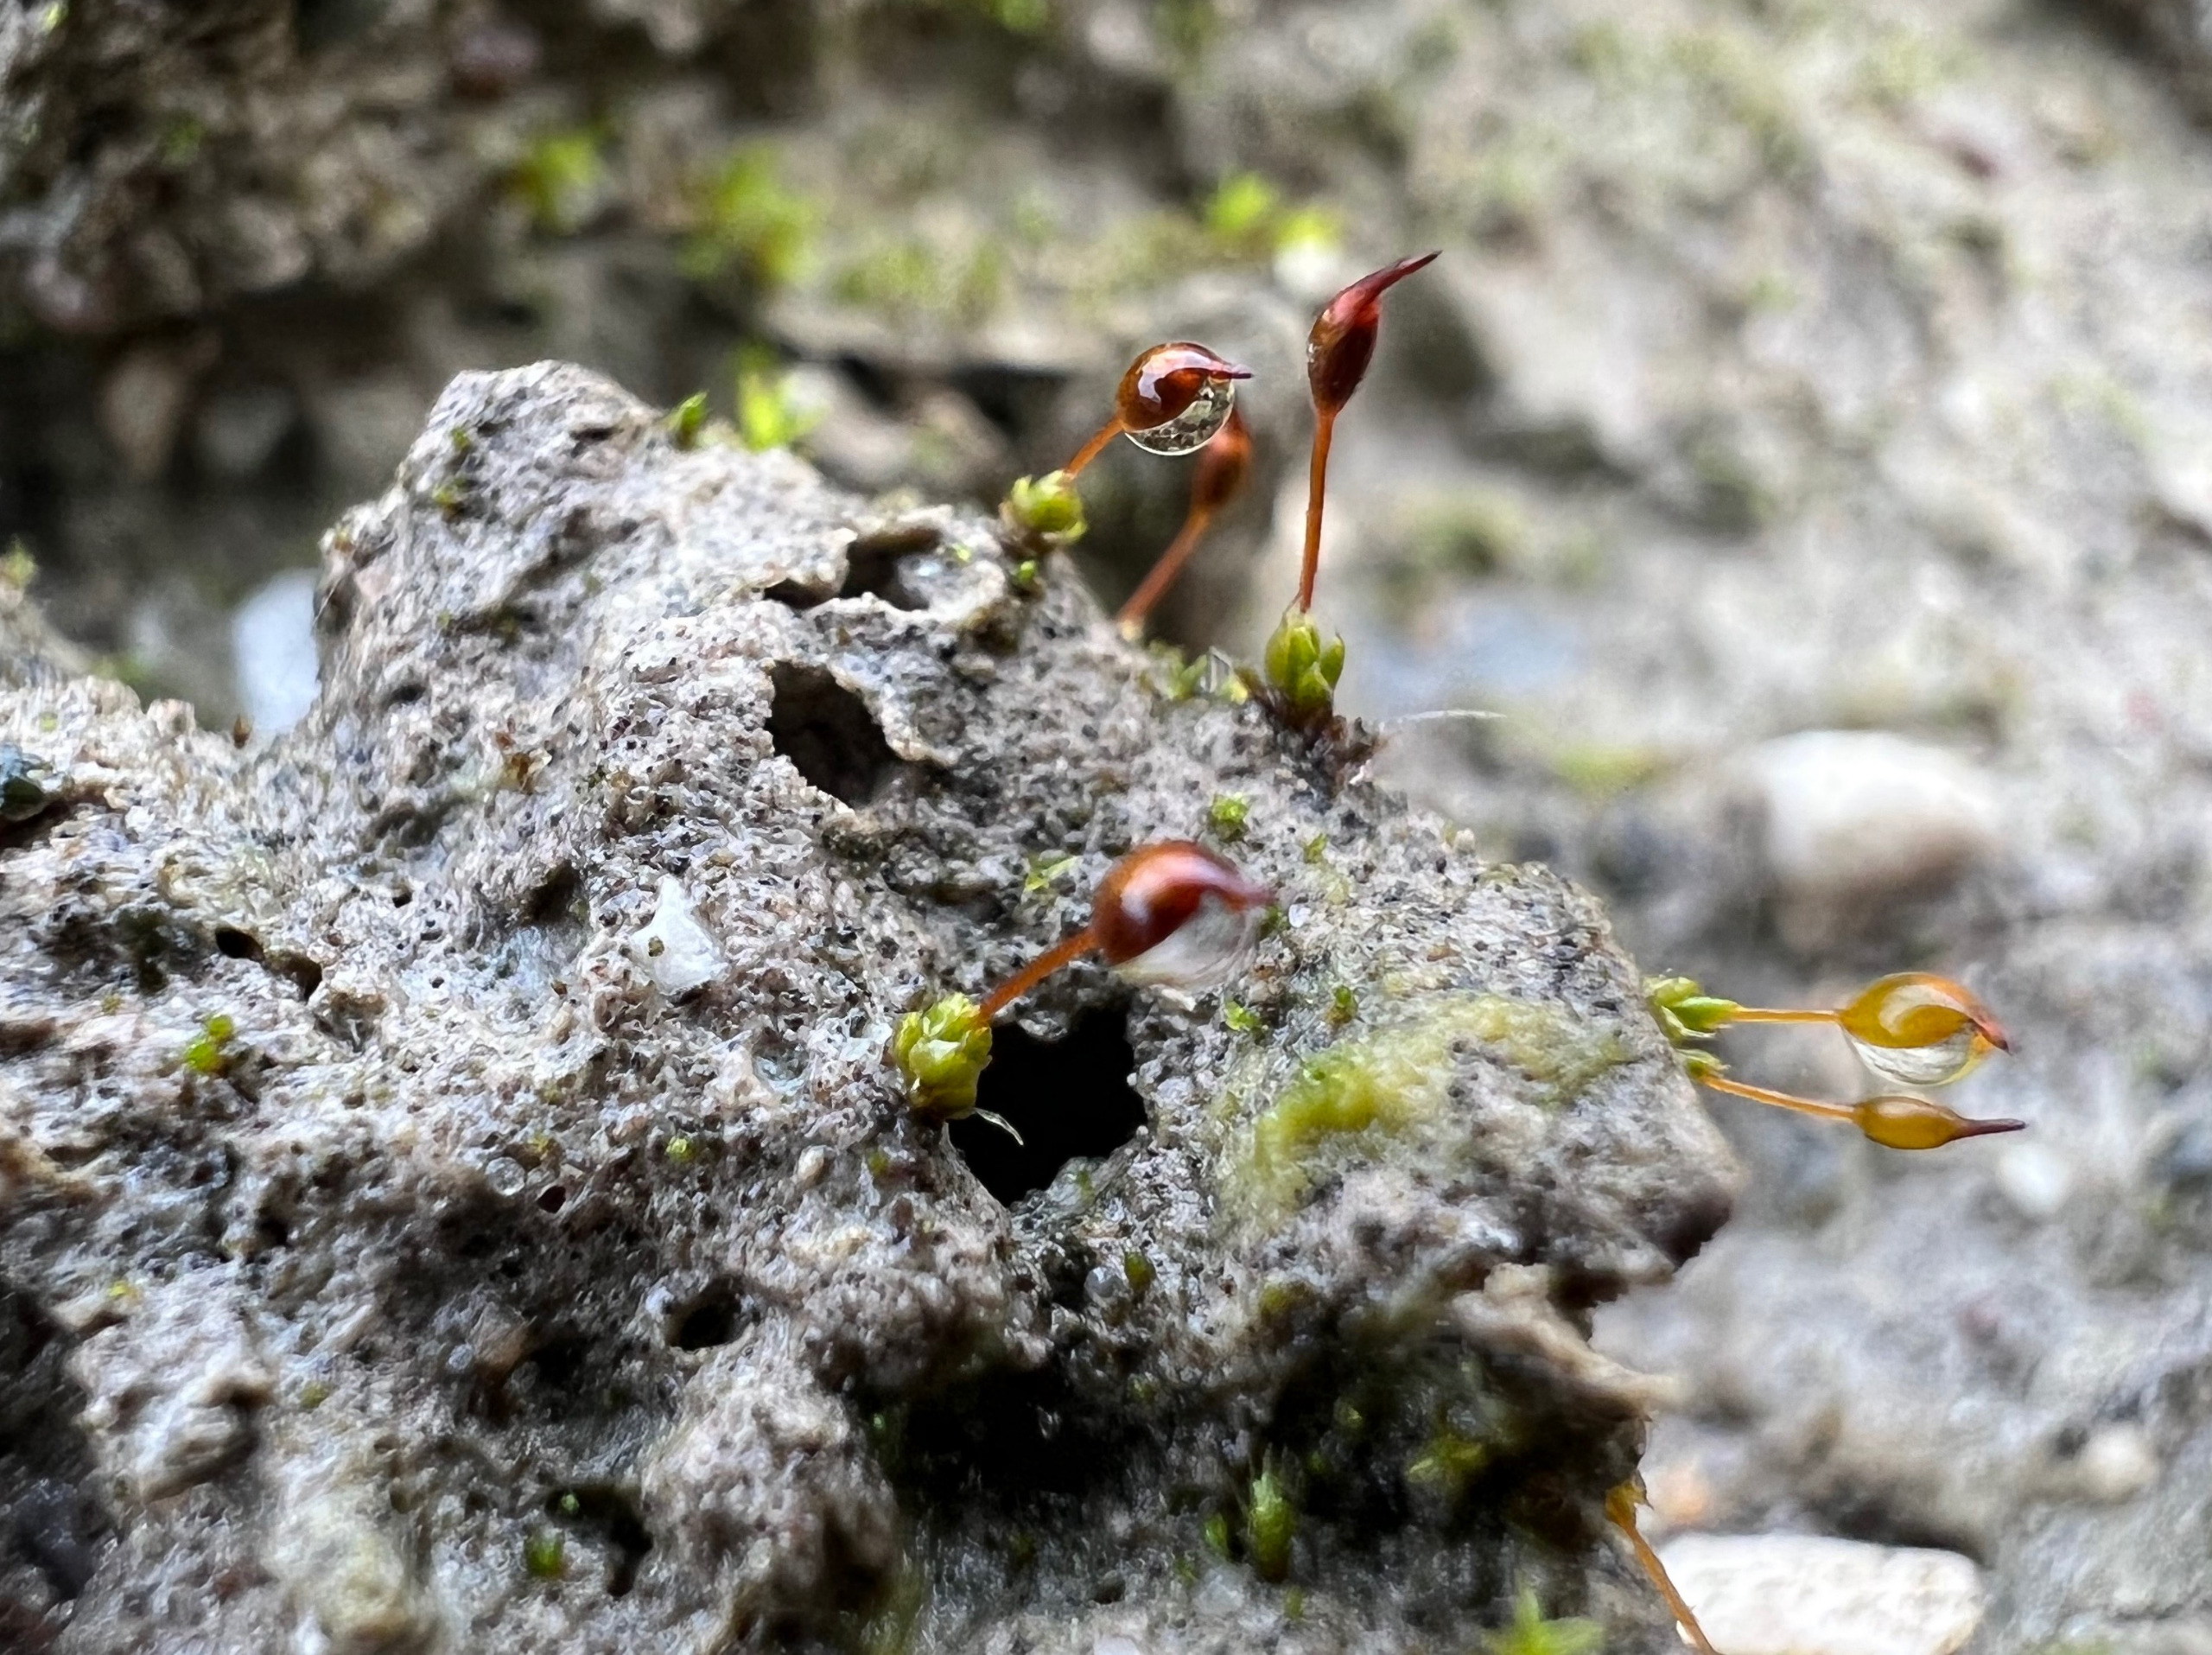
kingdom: Plantae
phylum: Bryophyta
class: Bryopsida
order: Pottiales
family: Pottiaceae
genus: Pterygoneurum
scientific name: Pterygoneurum ovatum
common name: Langhåret vingenerve
